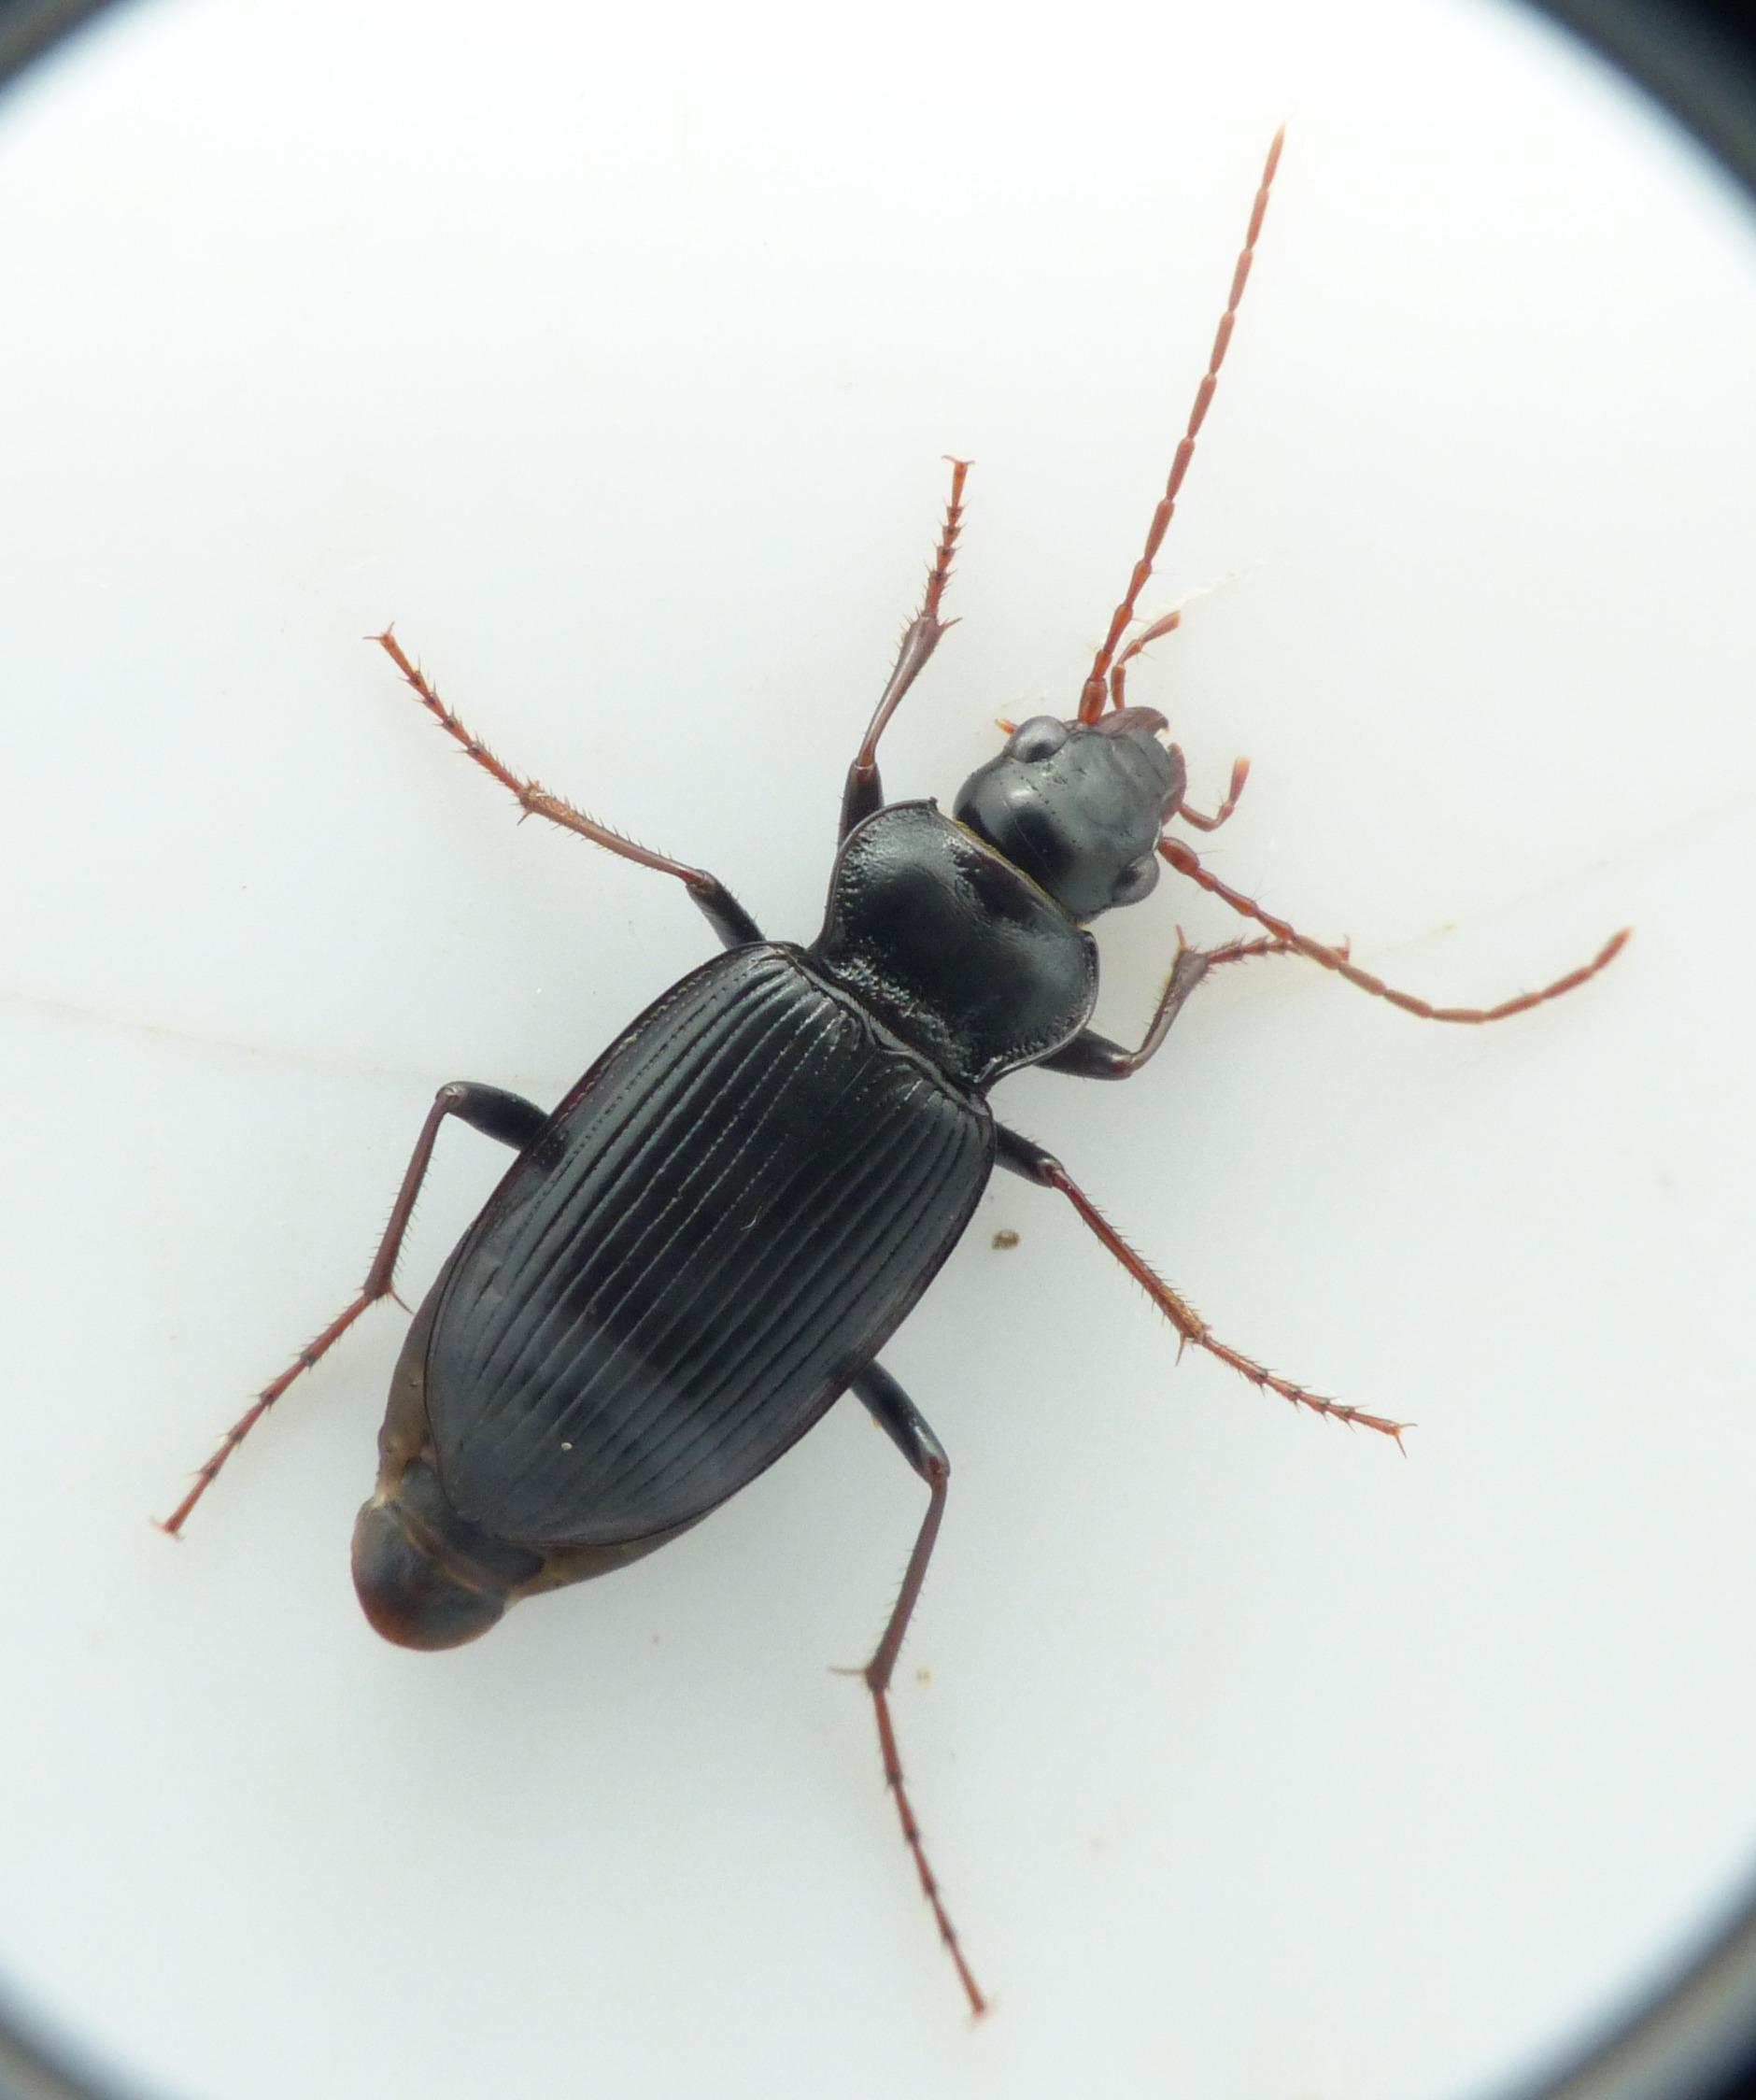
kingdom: Animalia
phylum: Arthropoda
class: Insecta
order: Coleoptera
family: Carabidae
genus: Nebria
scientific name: Nebria salina
